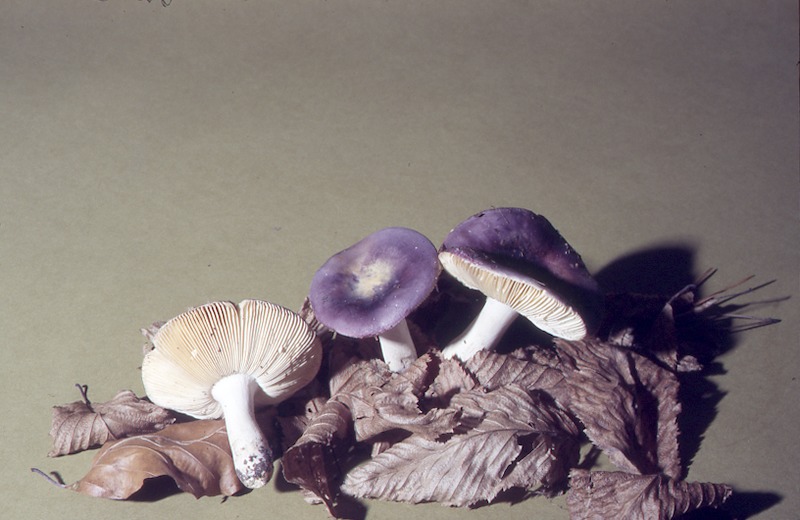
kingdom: Fungi
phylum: Basidiomycota
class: Agaricomycetes
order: Russulales
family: Russulaceae
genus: Russula
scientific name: Russula amethystina
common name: Amethyst brittlegill
